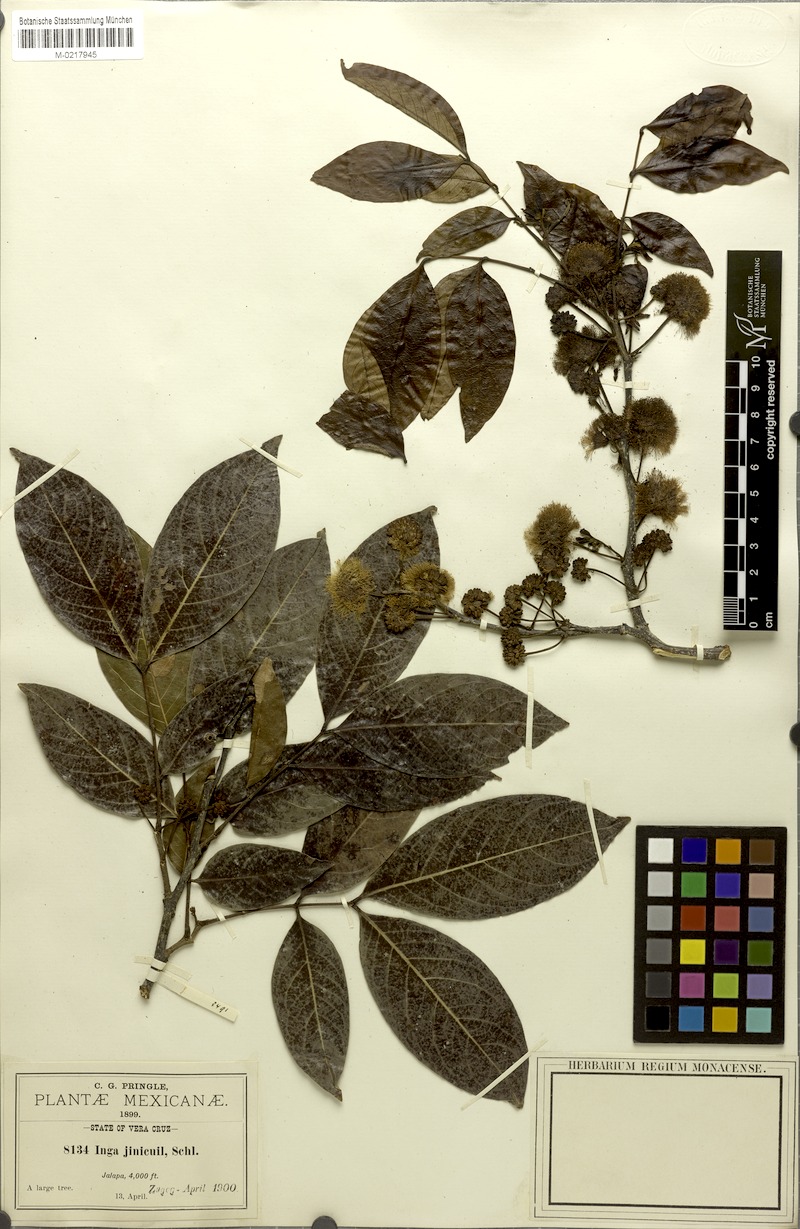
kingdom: Plantae
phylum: Tracheophyta
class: Magnoliopsida
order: Fabales
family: Fabaceae
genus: Inga
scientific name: Inga inicuil
